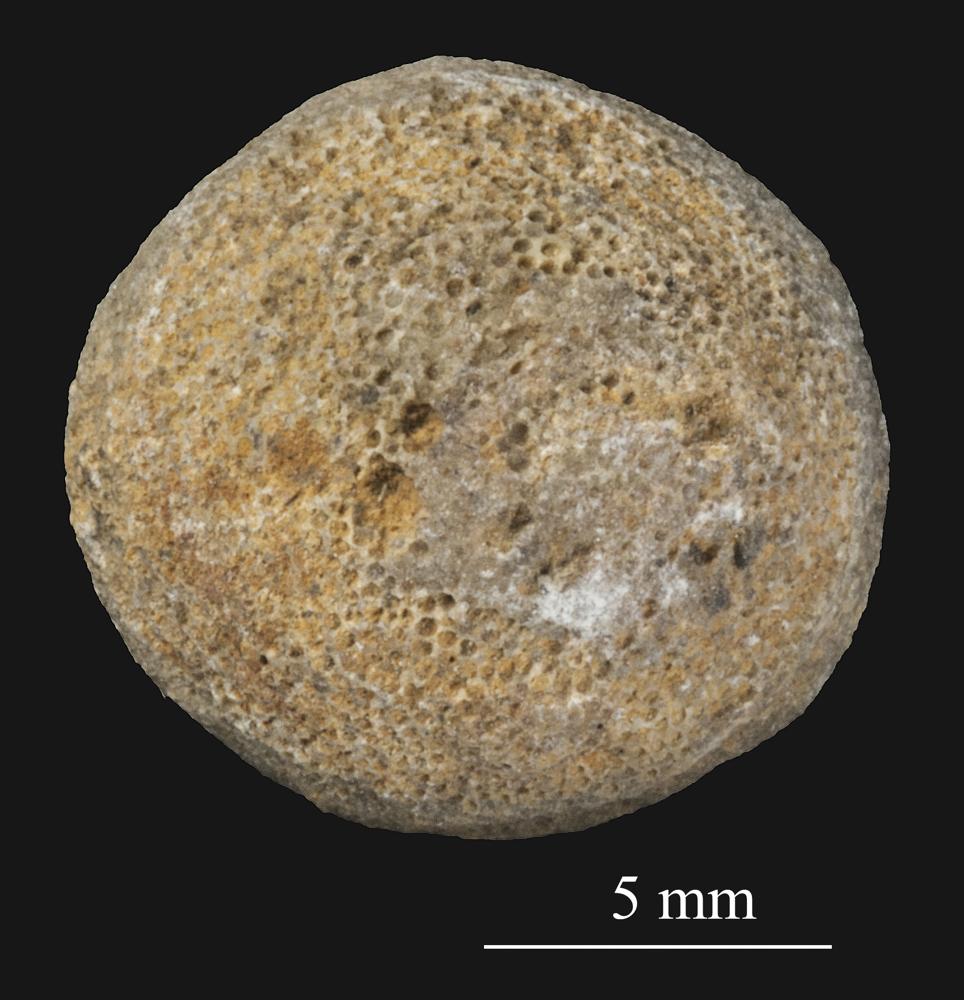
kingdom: Animalia
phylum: Bryozoa
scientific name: Bryozoa
